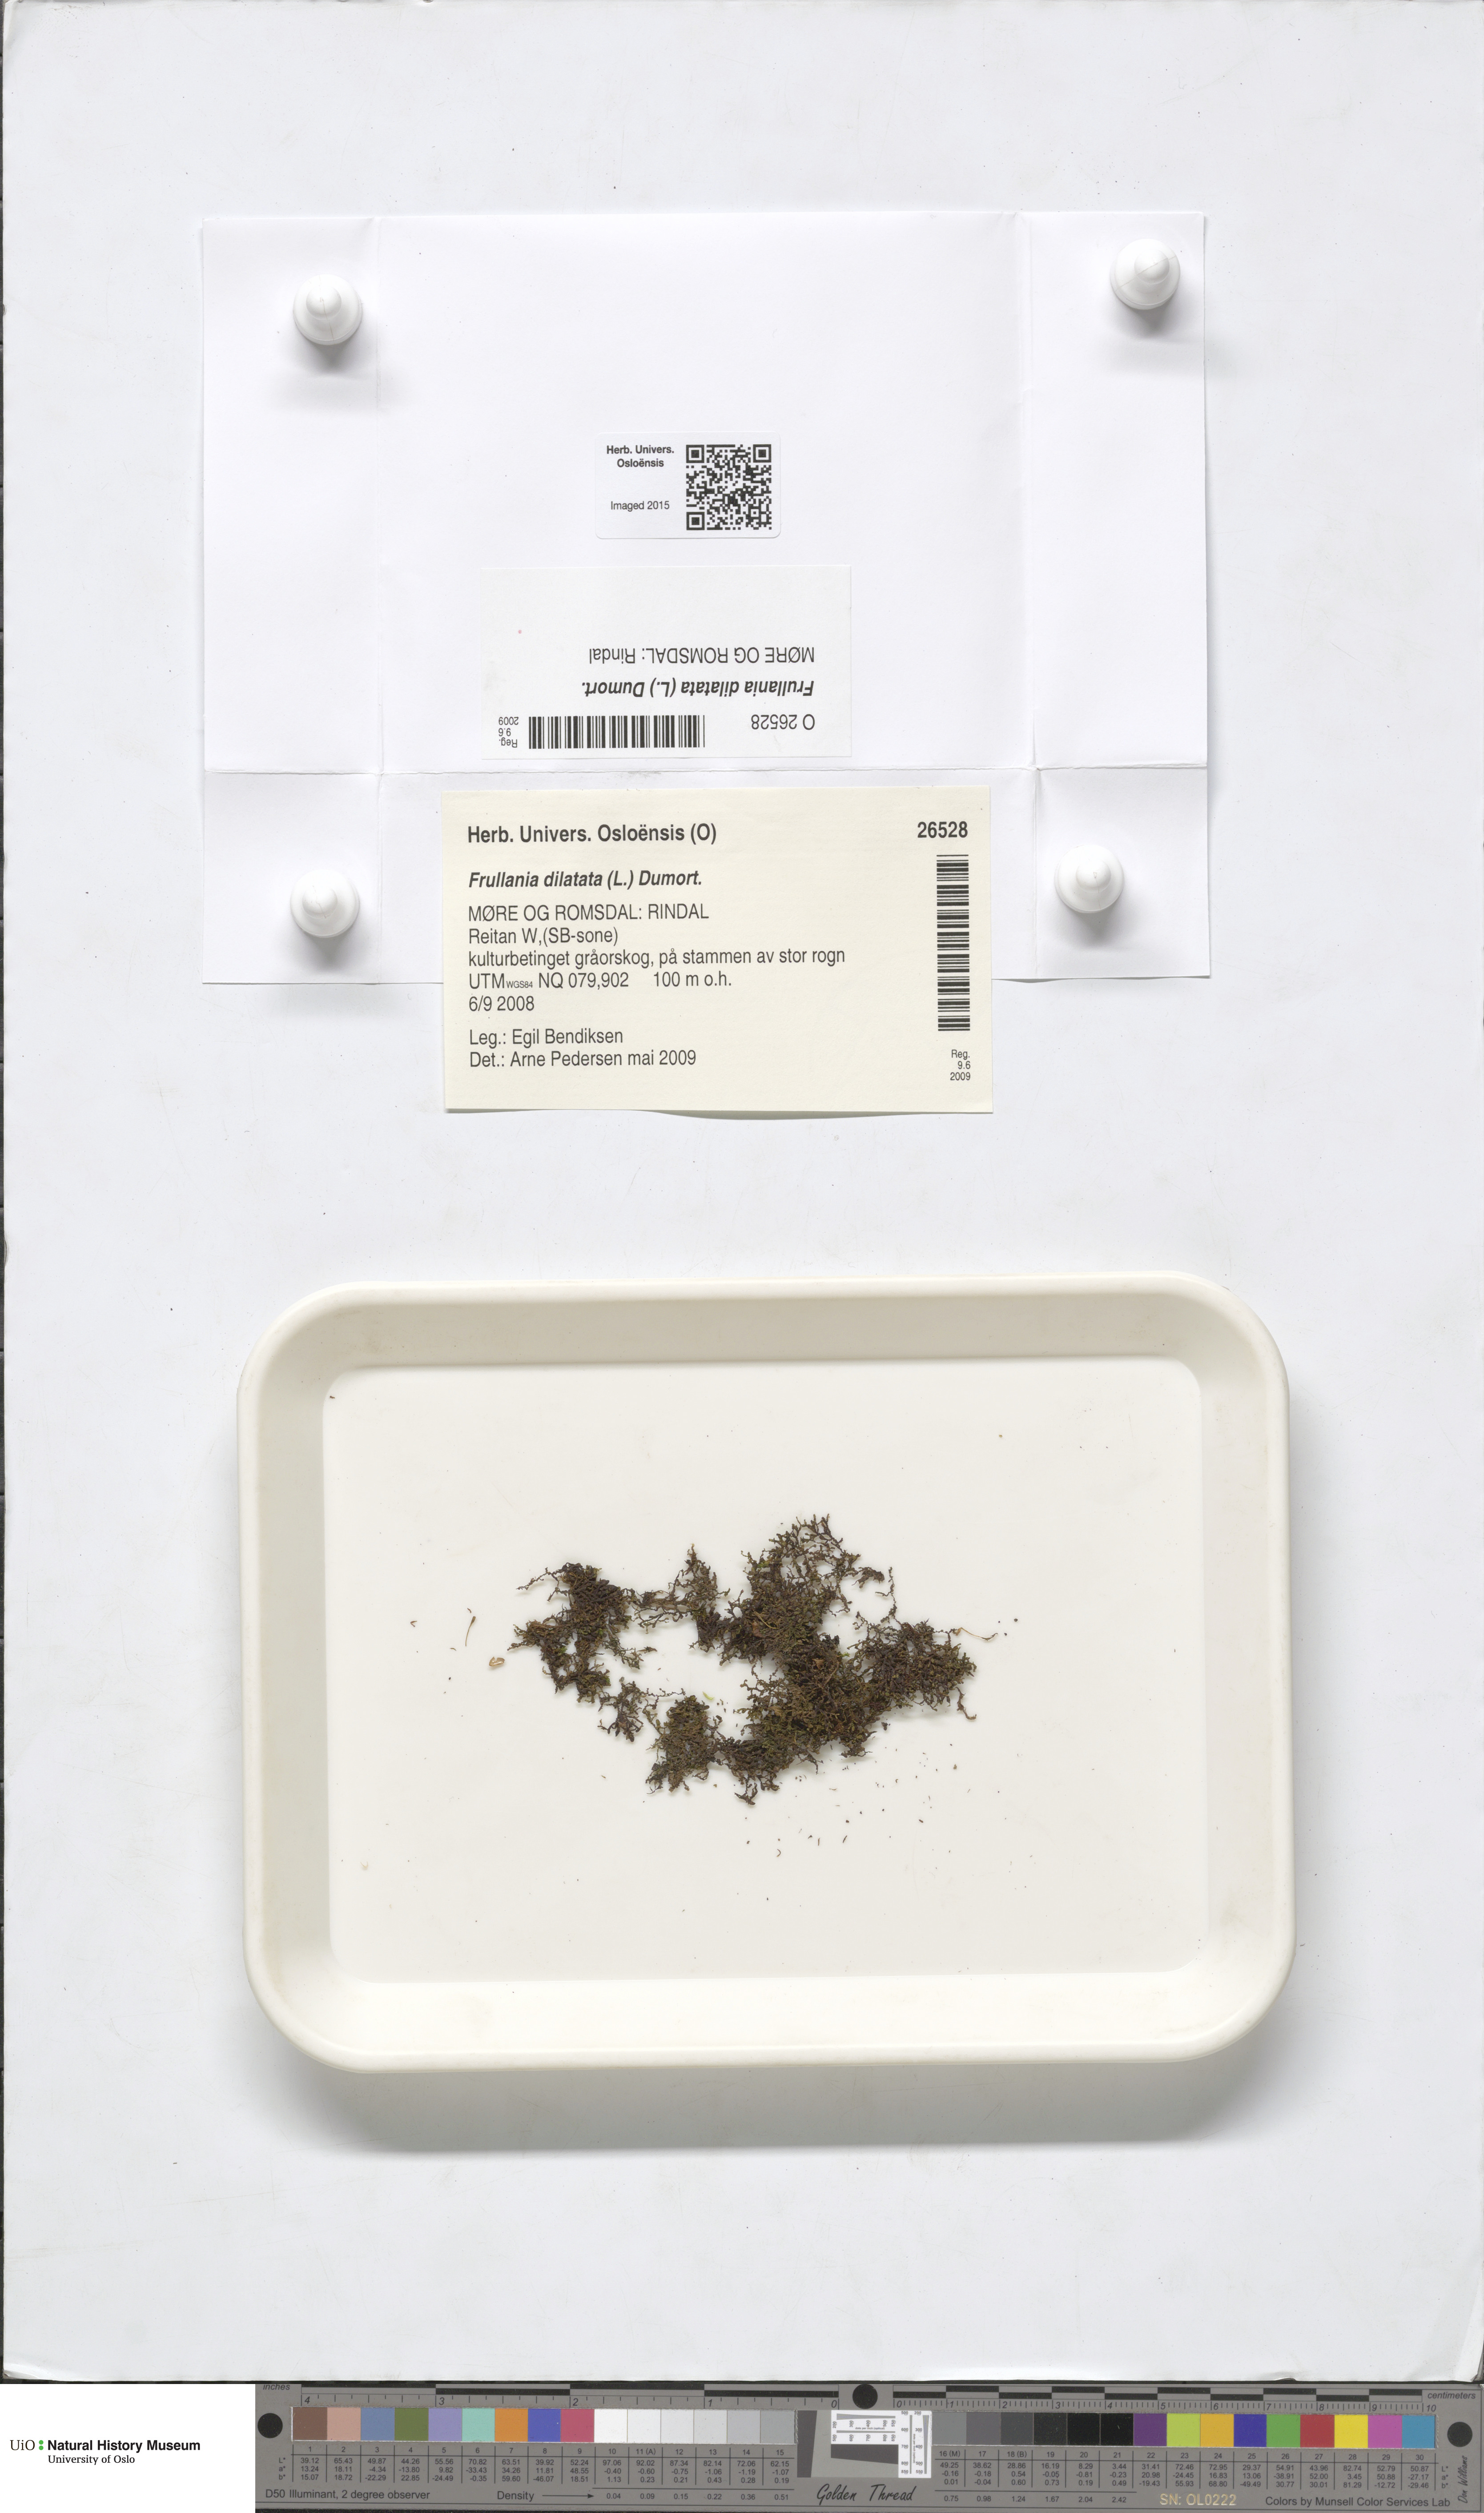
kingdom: Plantae
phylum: Marchantiophyta
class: Jungermanniopsida
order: Porellales
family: Frullaniaceae
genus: Frullania
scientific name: Frullania dilatata
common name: Dilated scalewort
